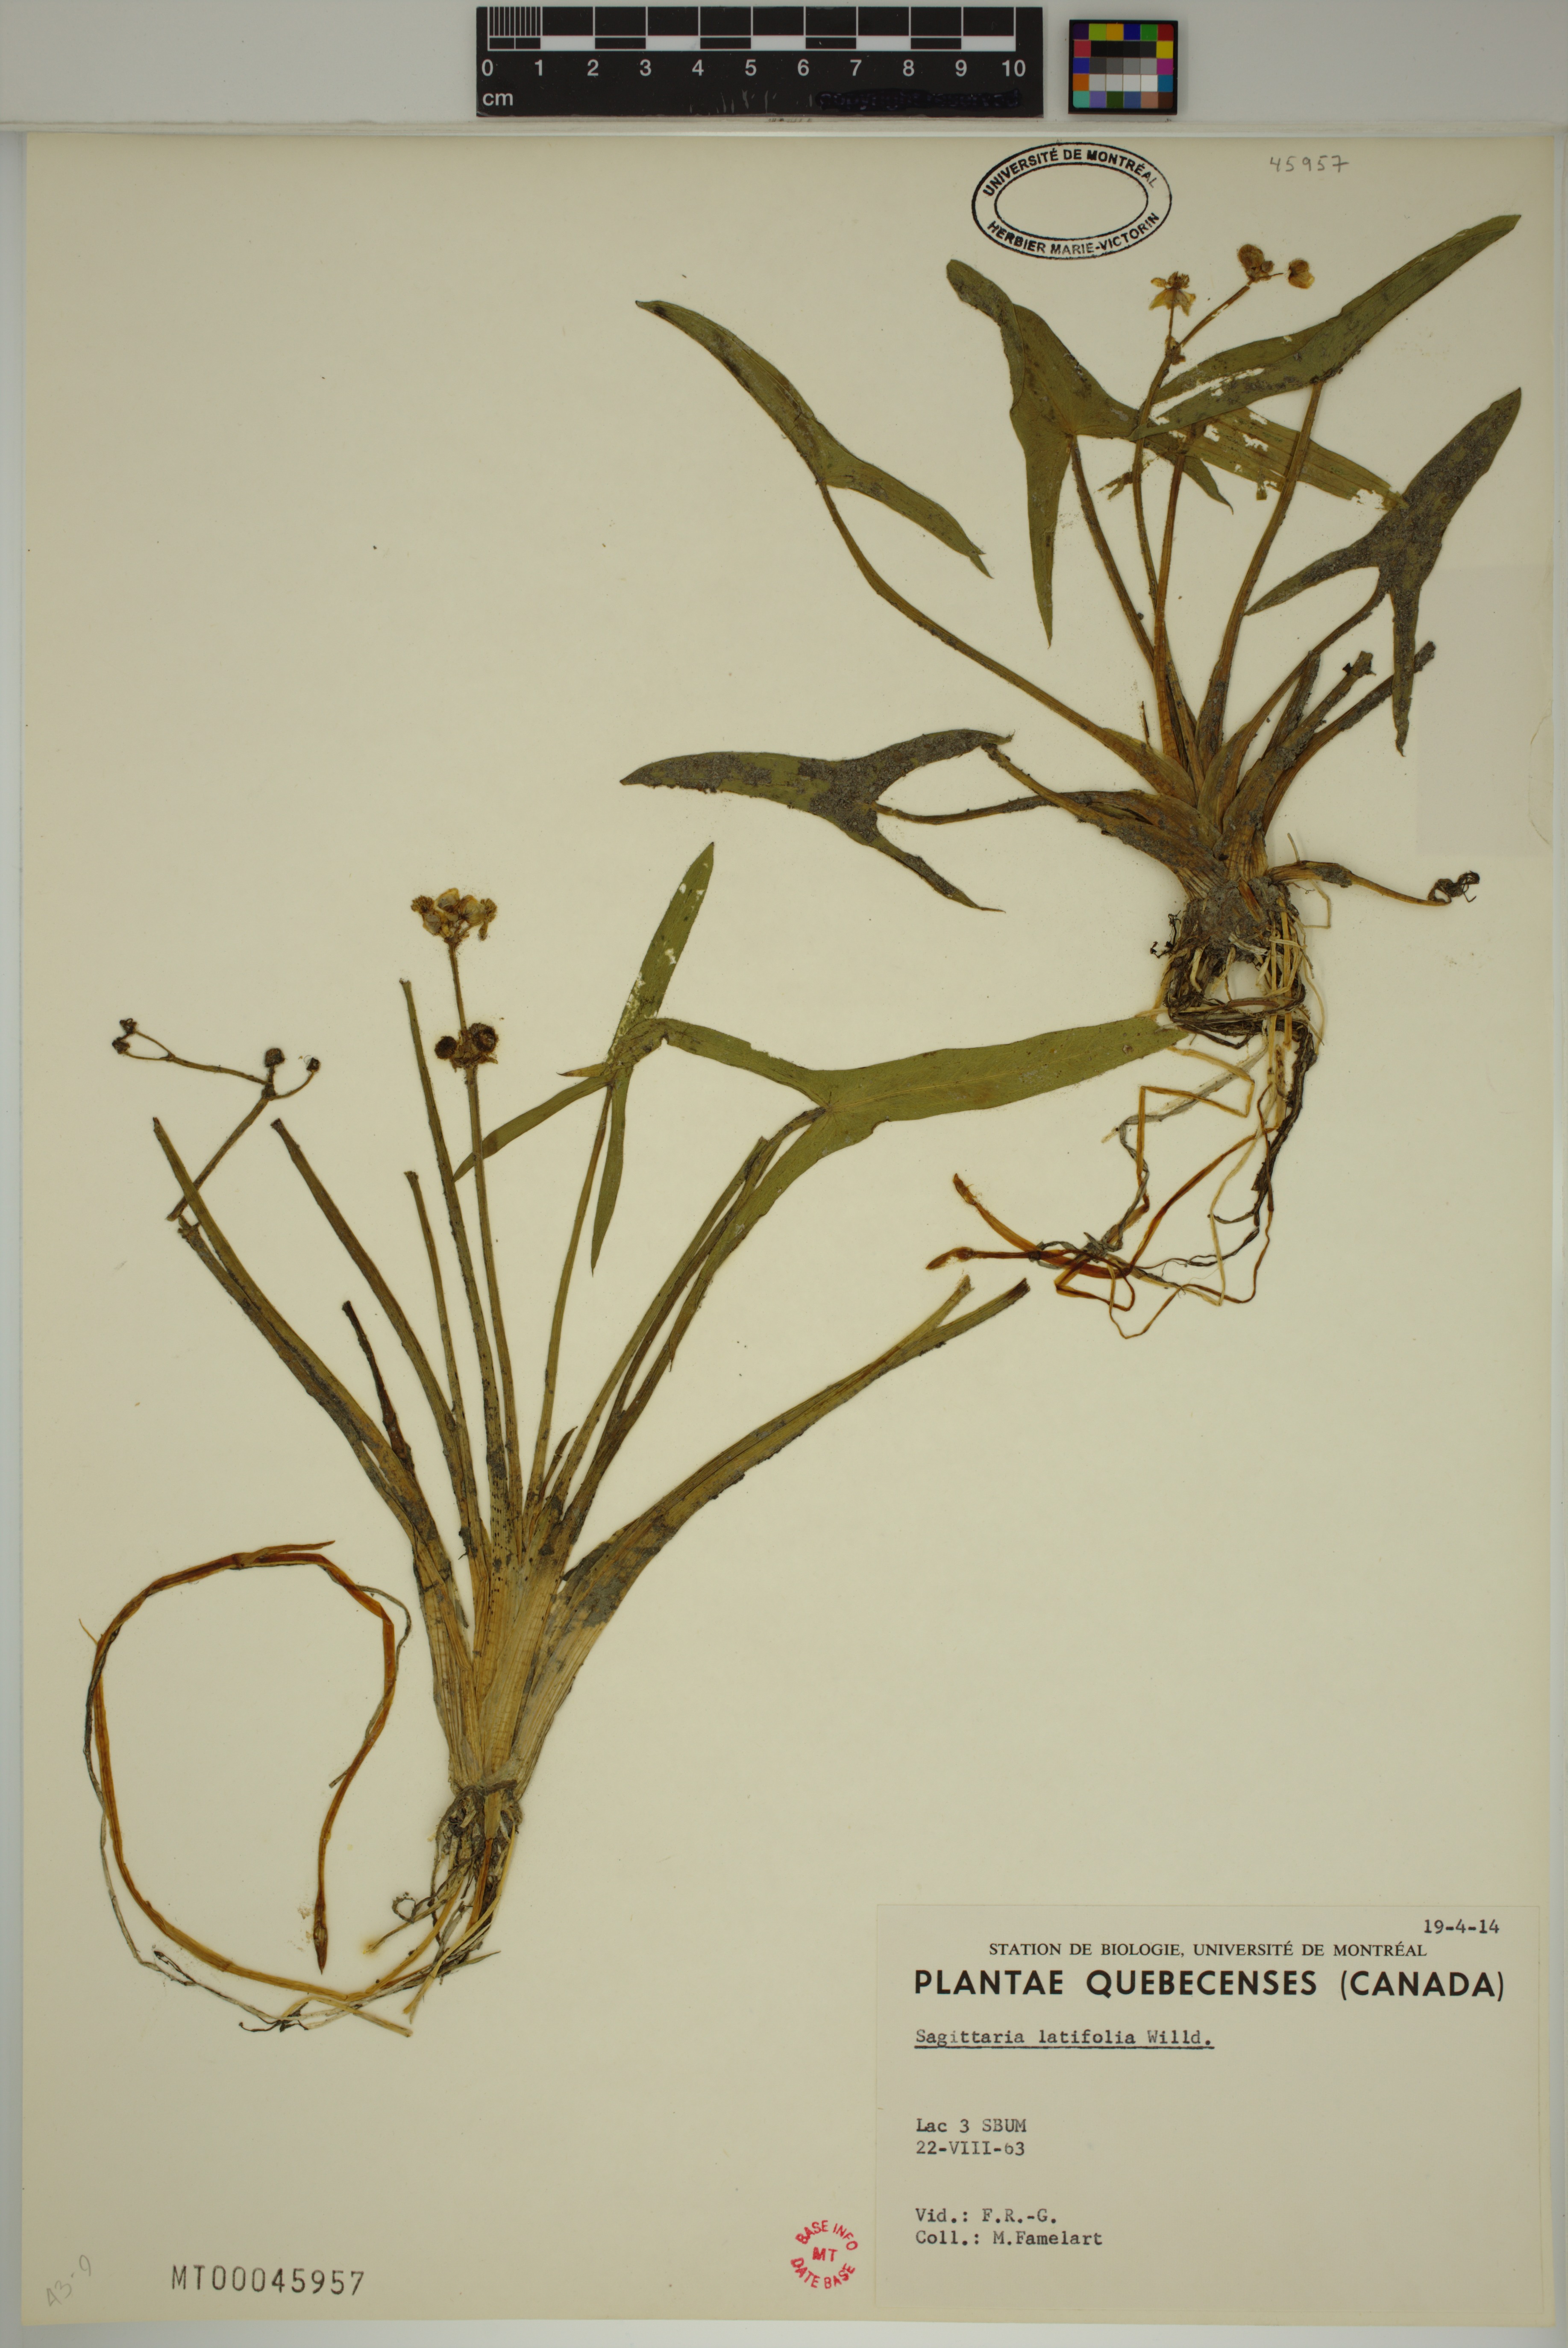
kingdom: Plantae
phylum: Tracheophyta
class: Liliopsida
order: Alismatales
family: Alismataceae
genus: Sagittaria
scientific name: Sagittaria latifolia
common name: Duck-potato
